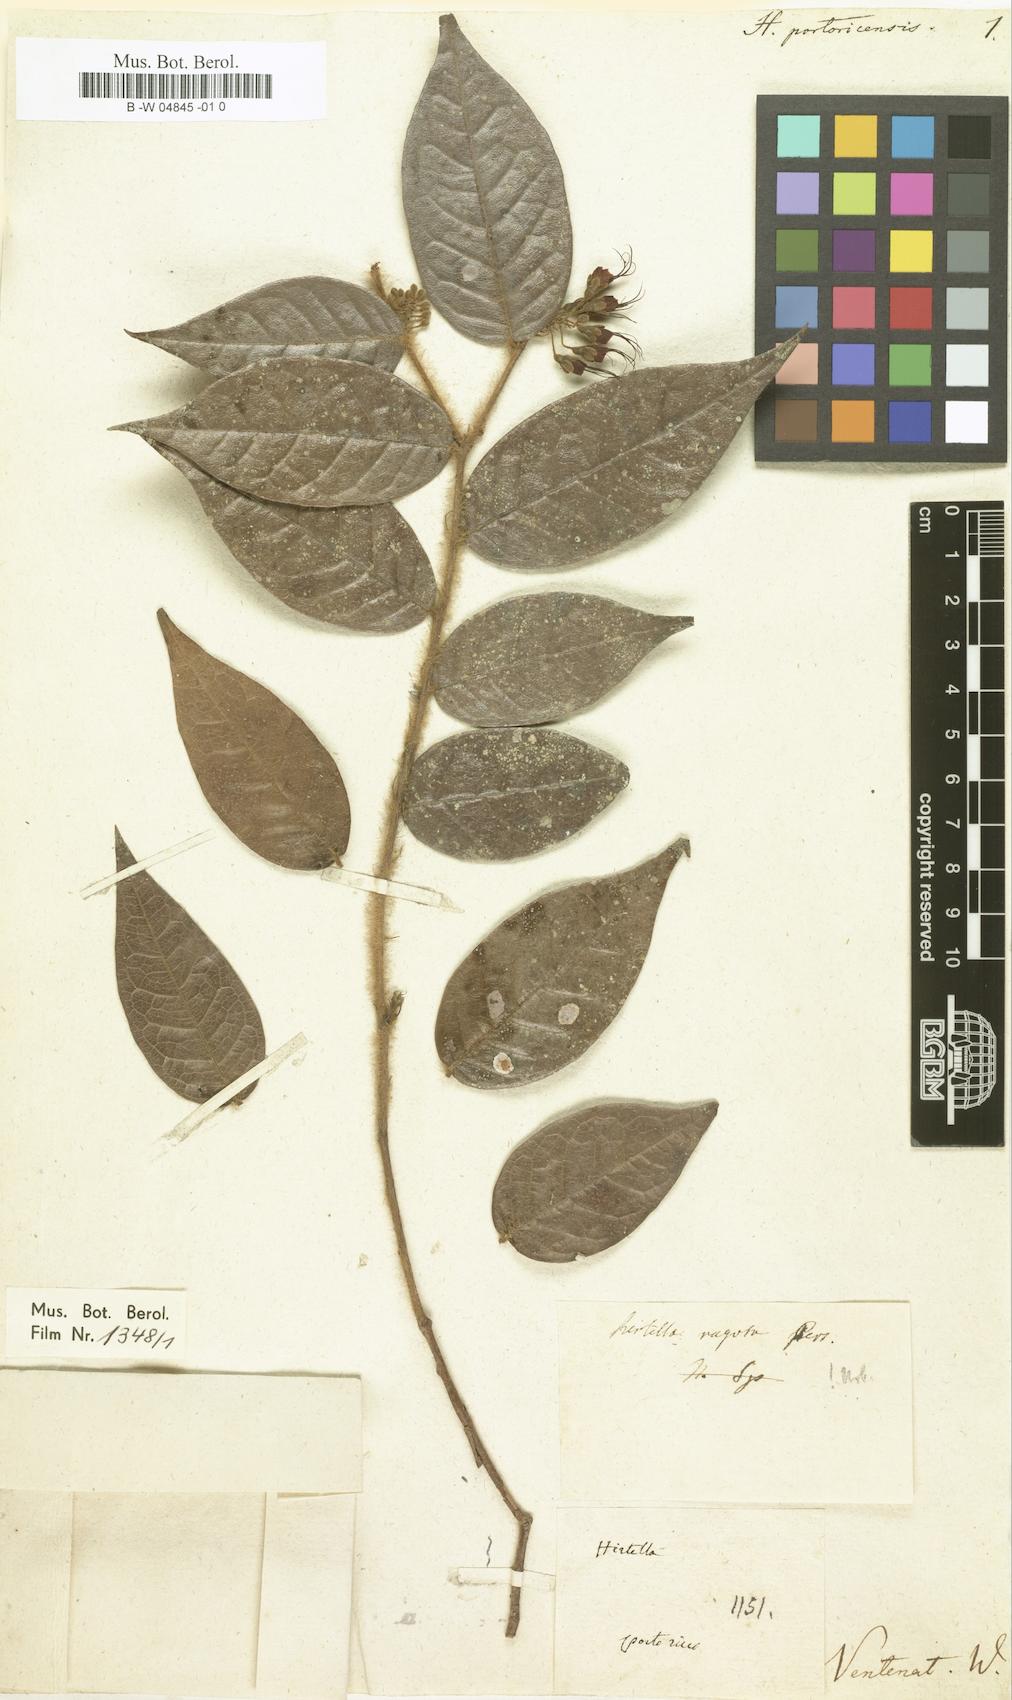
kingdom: Plantae
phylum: Tracheophyta
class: Magnoliopsida
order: Malpighiales
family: Chrysobalanaceae
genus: Hirtella
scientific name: Hirtella rugosa
